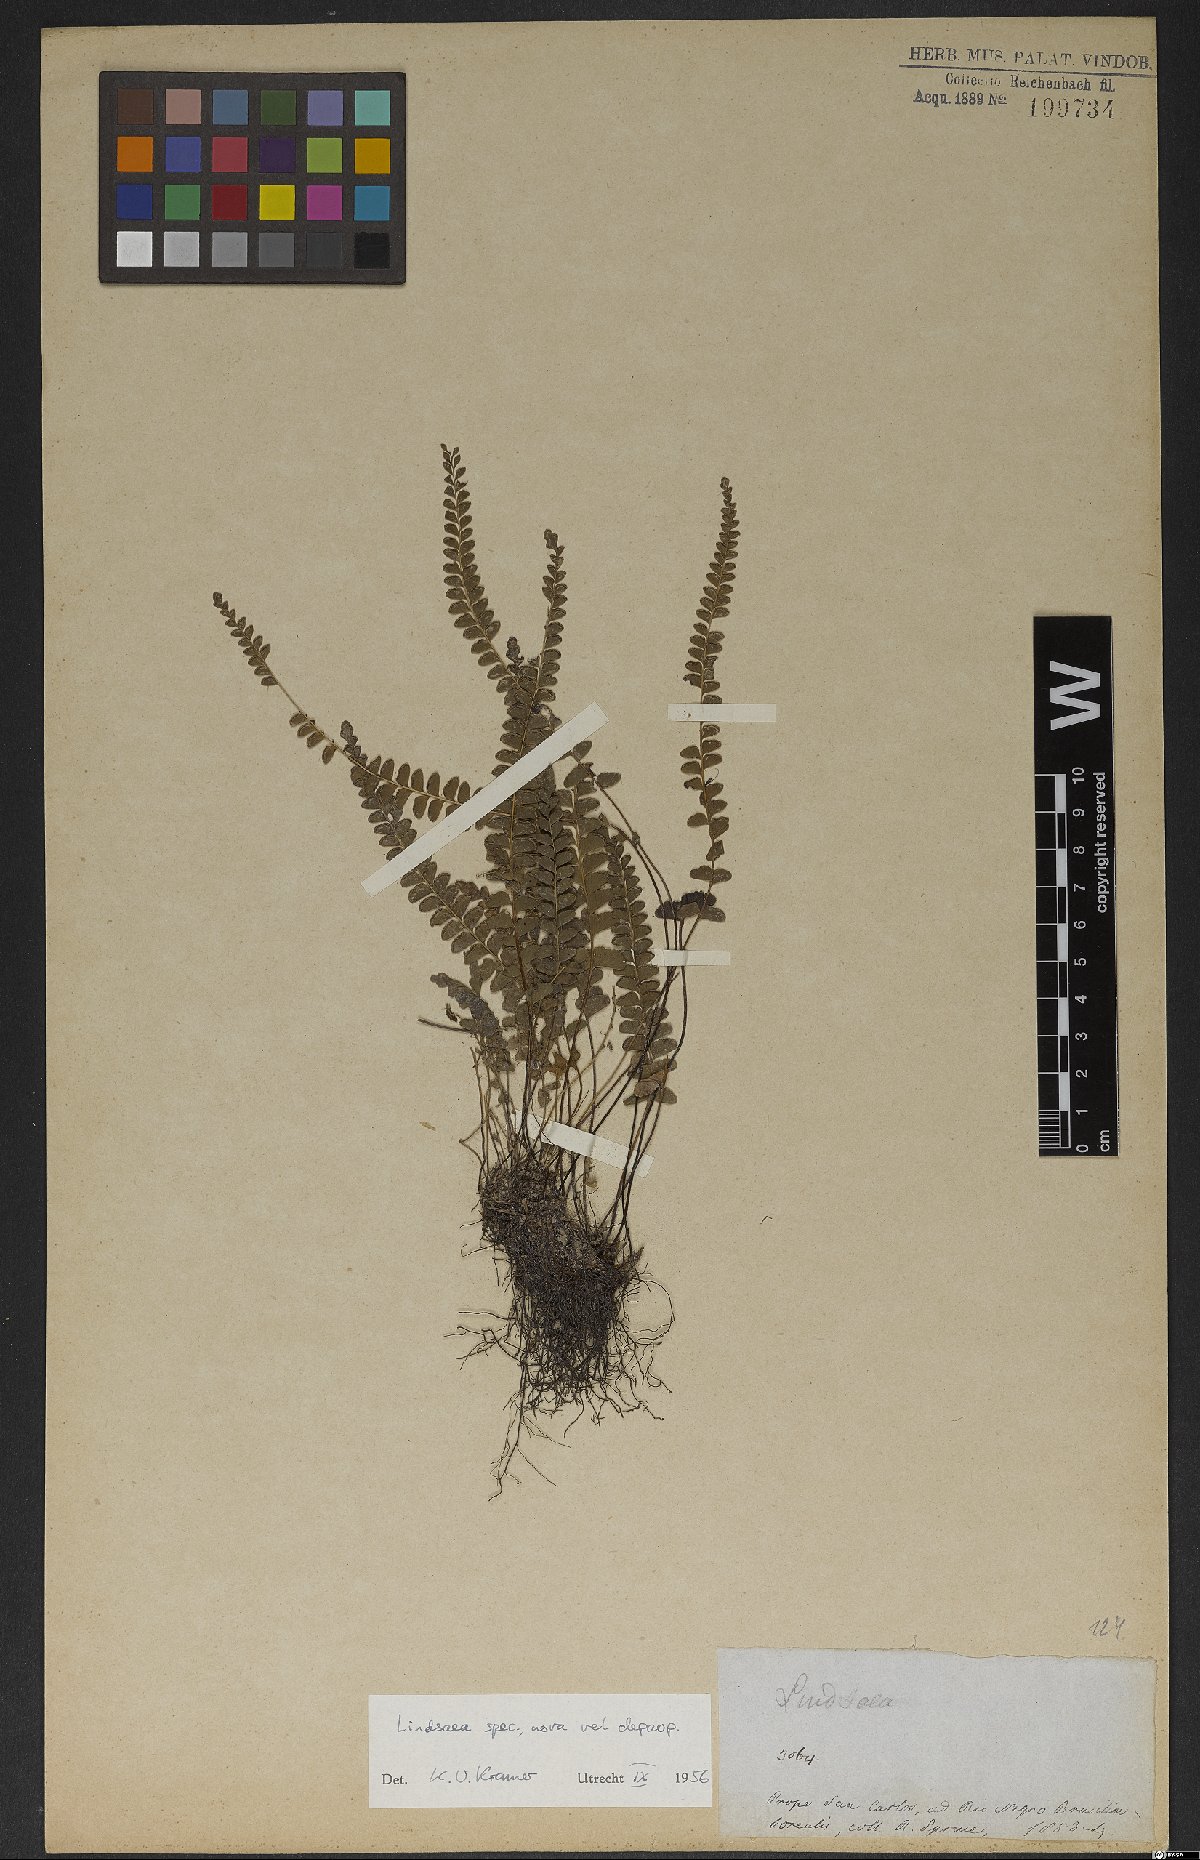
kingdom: Plantae
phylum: Tracheophyta
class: Polypodiopsida
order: Polypodiales
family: Lindsaeaceae
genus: Lindsaea
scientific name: Lindsaea
